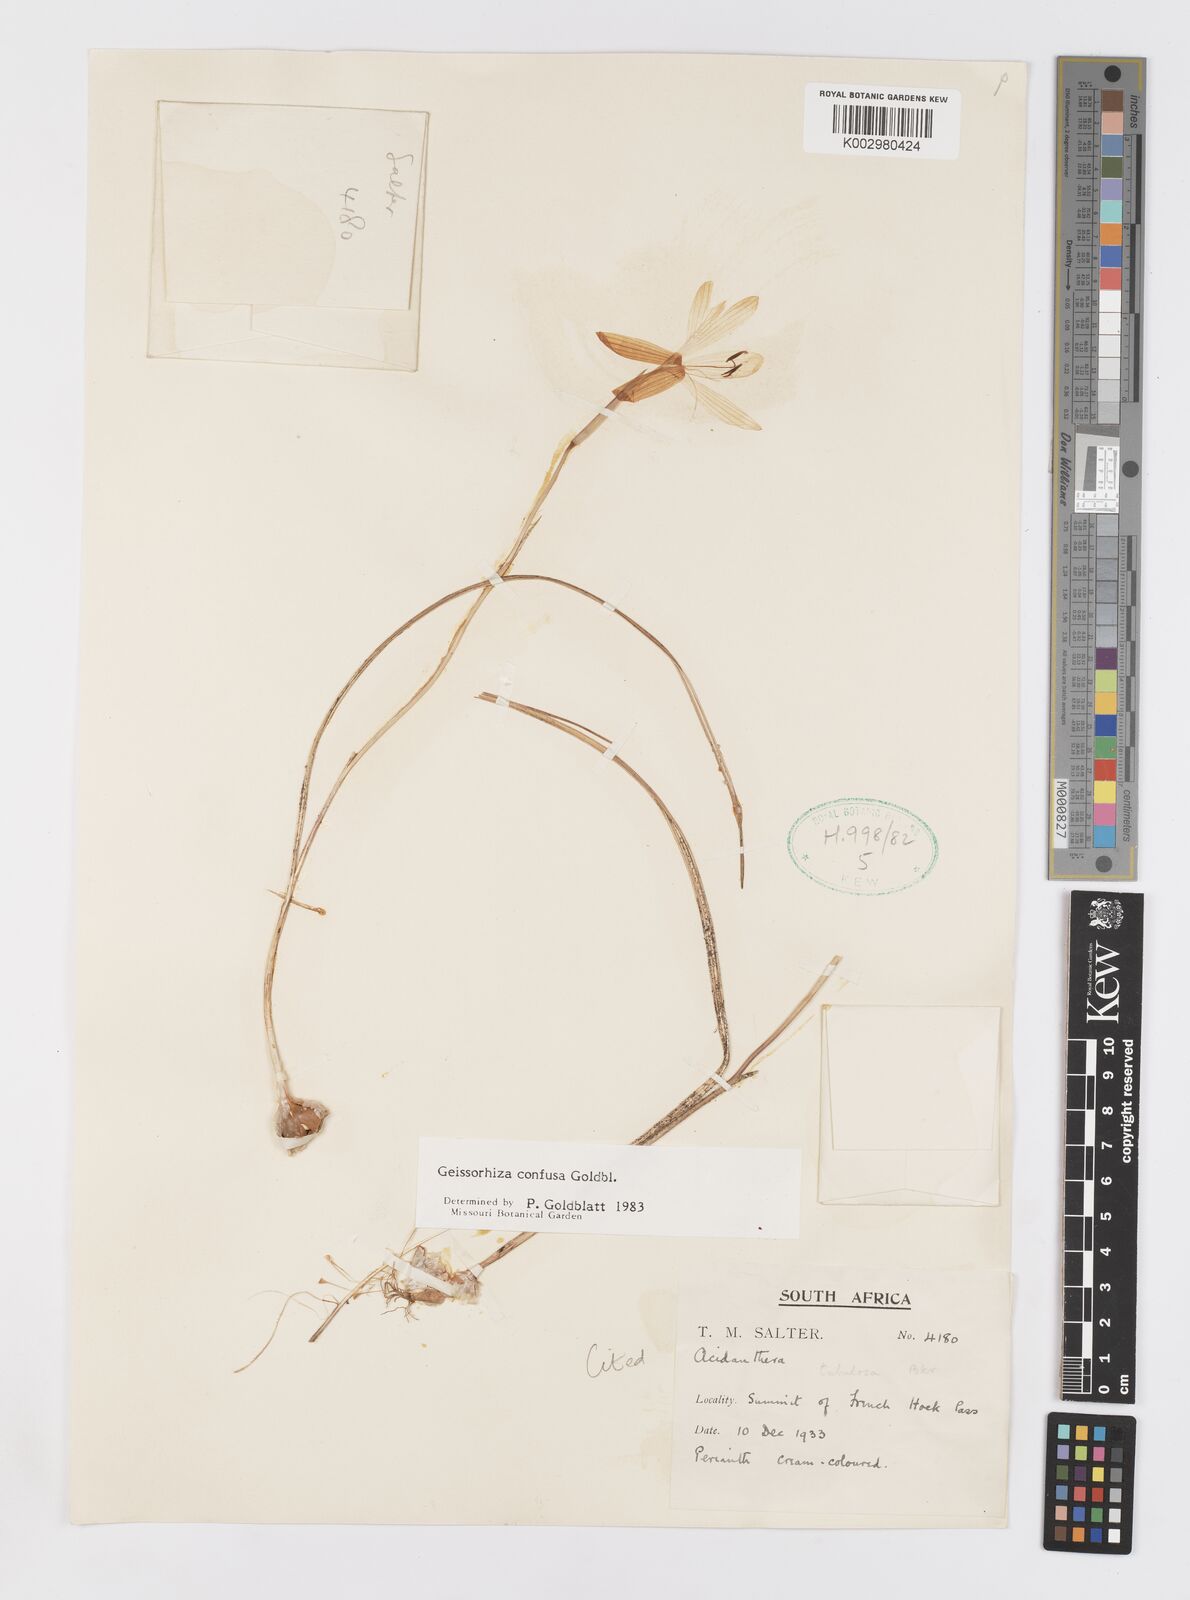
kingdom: Plantae
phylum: Tracheophyta
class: Liliopsida
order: Asparagales
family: Iridaceae
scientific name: Iridaceae
